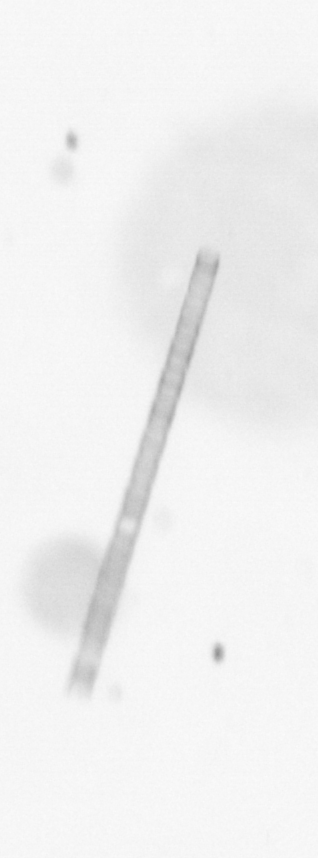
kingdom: Chromista
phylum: Ochrophyta
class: Bacillariophyceae
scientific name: Bacillariophyceae
